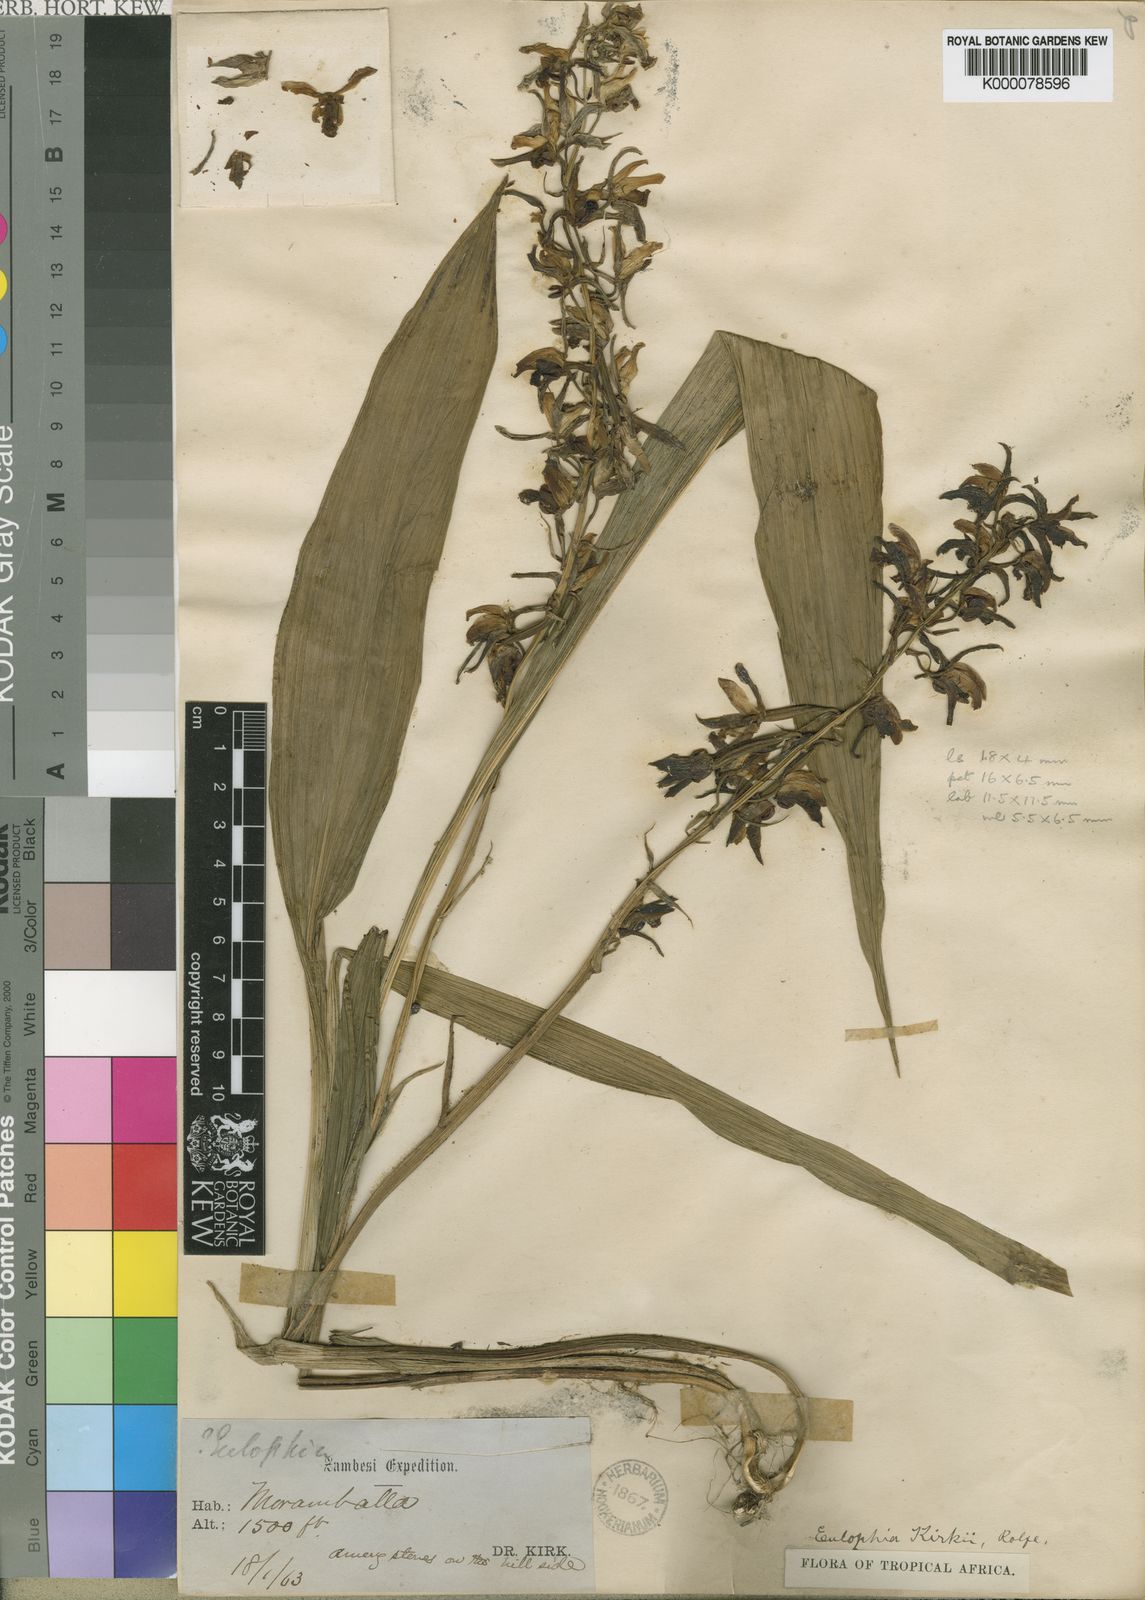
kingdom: Plantae
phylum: Tracheophyta
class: Liliopsida
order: Asparagales
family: Orchidaceae
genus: Eulophia
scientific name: Eulophia stachyodes
